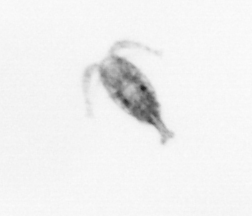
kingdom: Animalia
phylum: Arthropoda
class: Copepoda
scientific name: Copepoda
